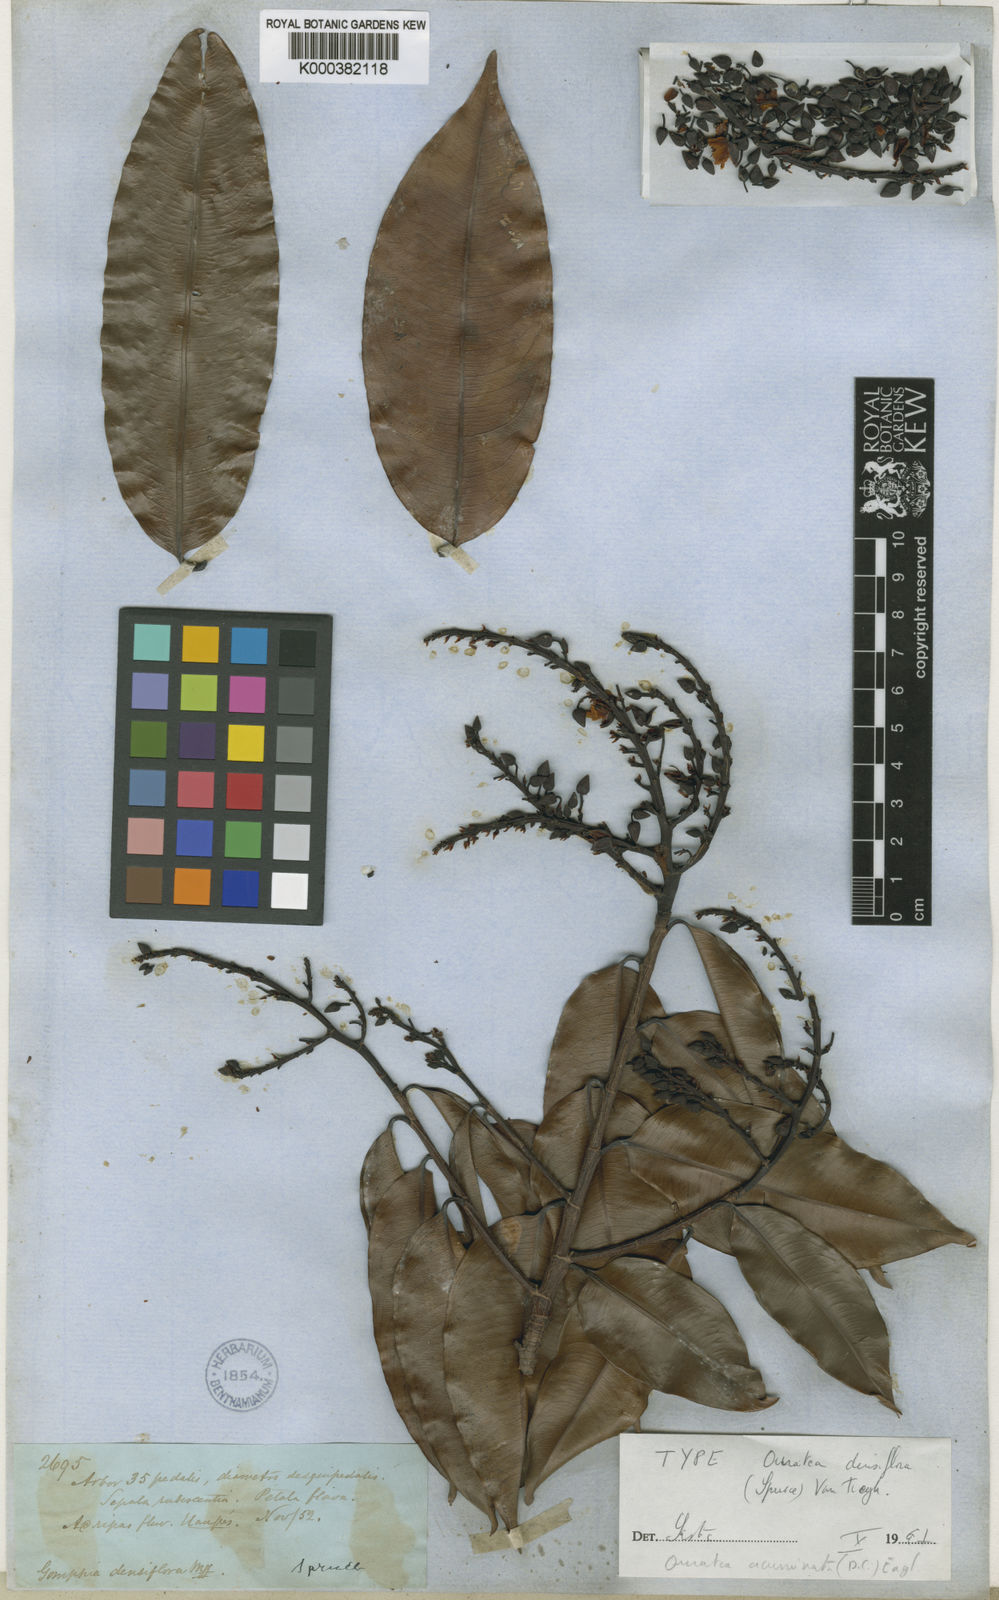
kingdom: Plantae
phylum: Tracheophyta
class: Magnoliopsida
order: Malpighiales
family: Ochnaceae
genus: Ouratea
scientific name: Ouratea
